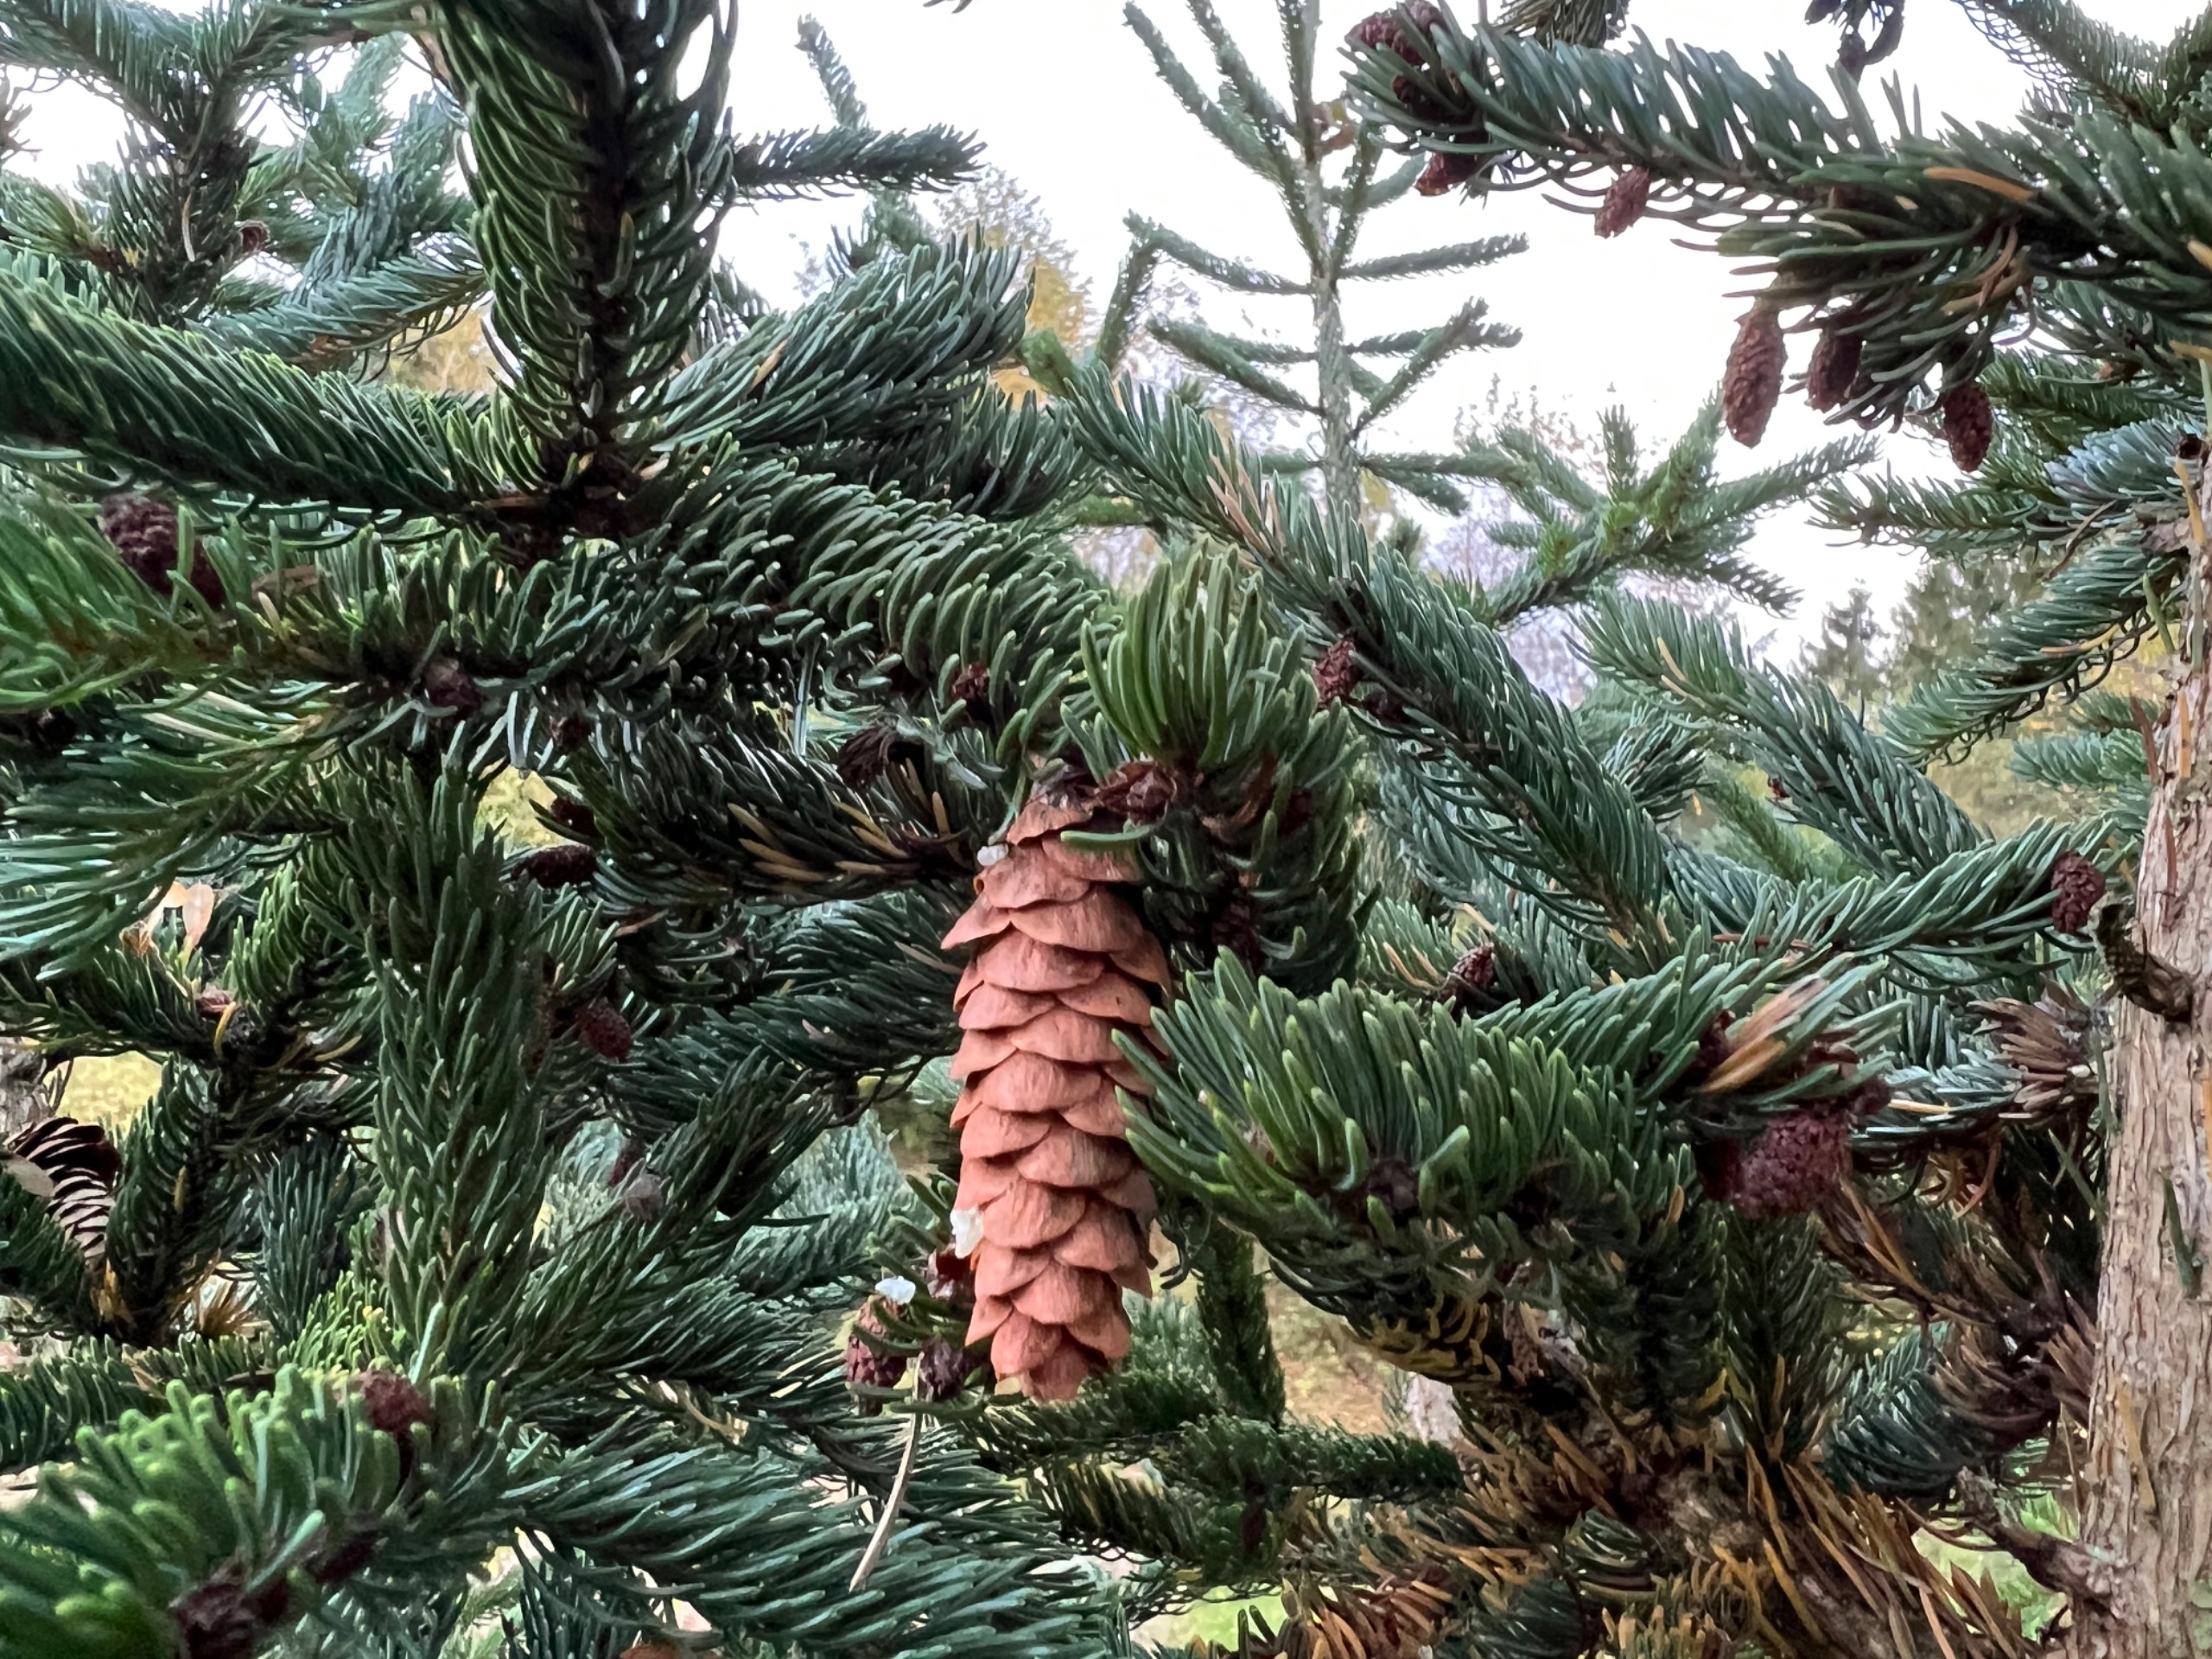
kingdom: Plantae
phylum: Tracheophyta
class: Pinopsida
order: Pinales
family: Pinaceae
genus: Picea
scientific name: Picea glauca
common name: Hvid-gran
